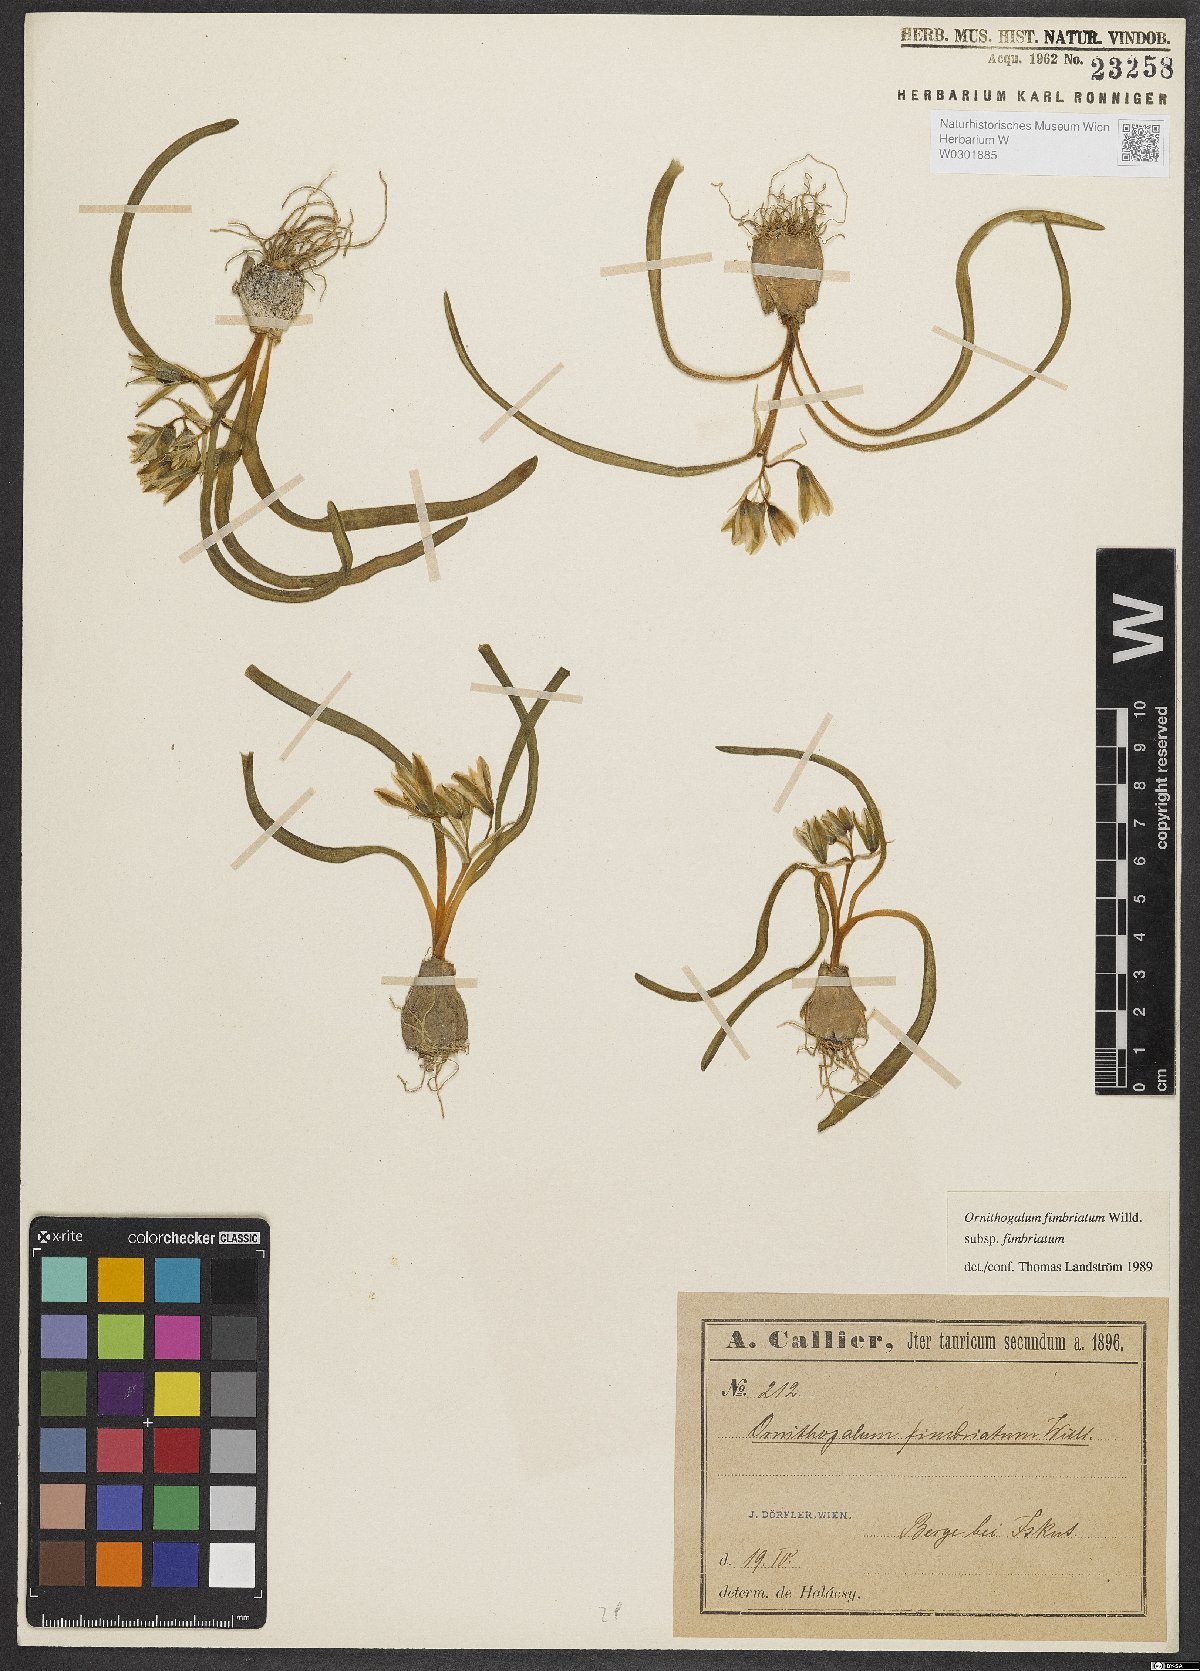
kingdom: Plantae
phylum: Tracheophyta
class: Liliopsida
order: Asparagales
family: Asparagaceae
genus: Ornithogalum
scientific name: Ornithogalum fimbriatum
